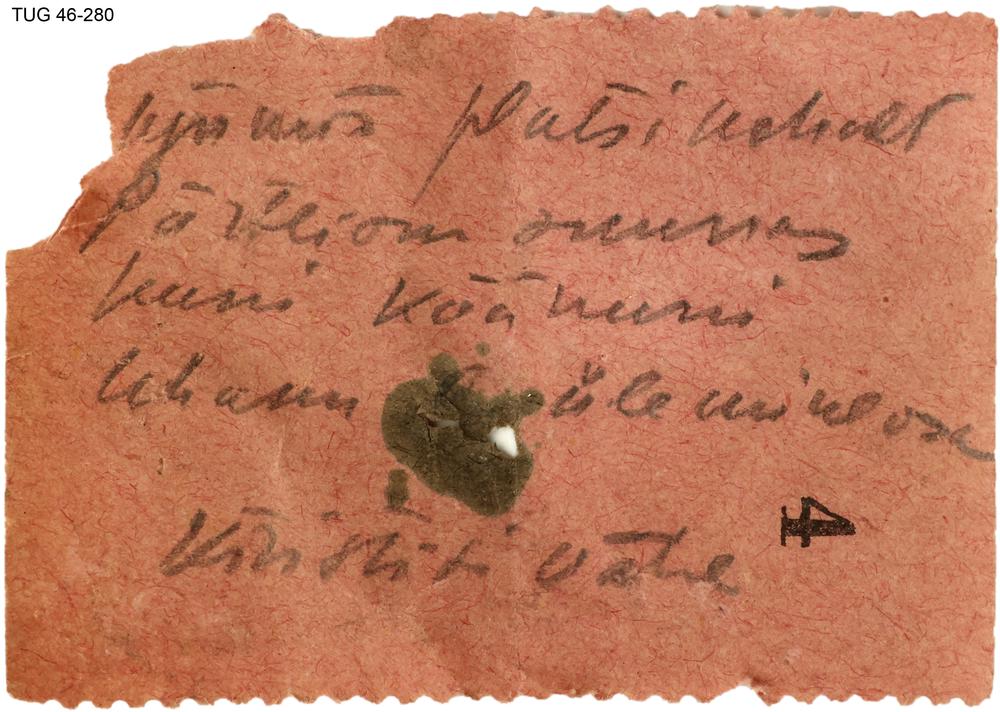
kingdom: Animalia
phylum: Brachiopoda
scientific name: Brachiopoda
